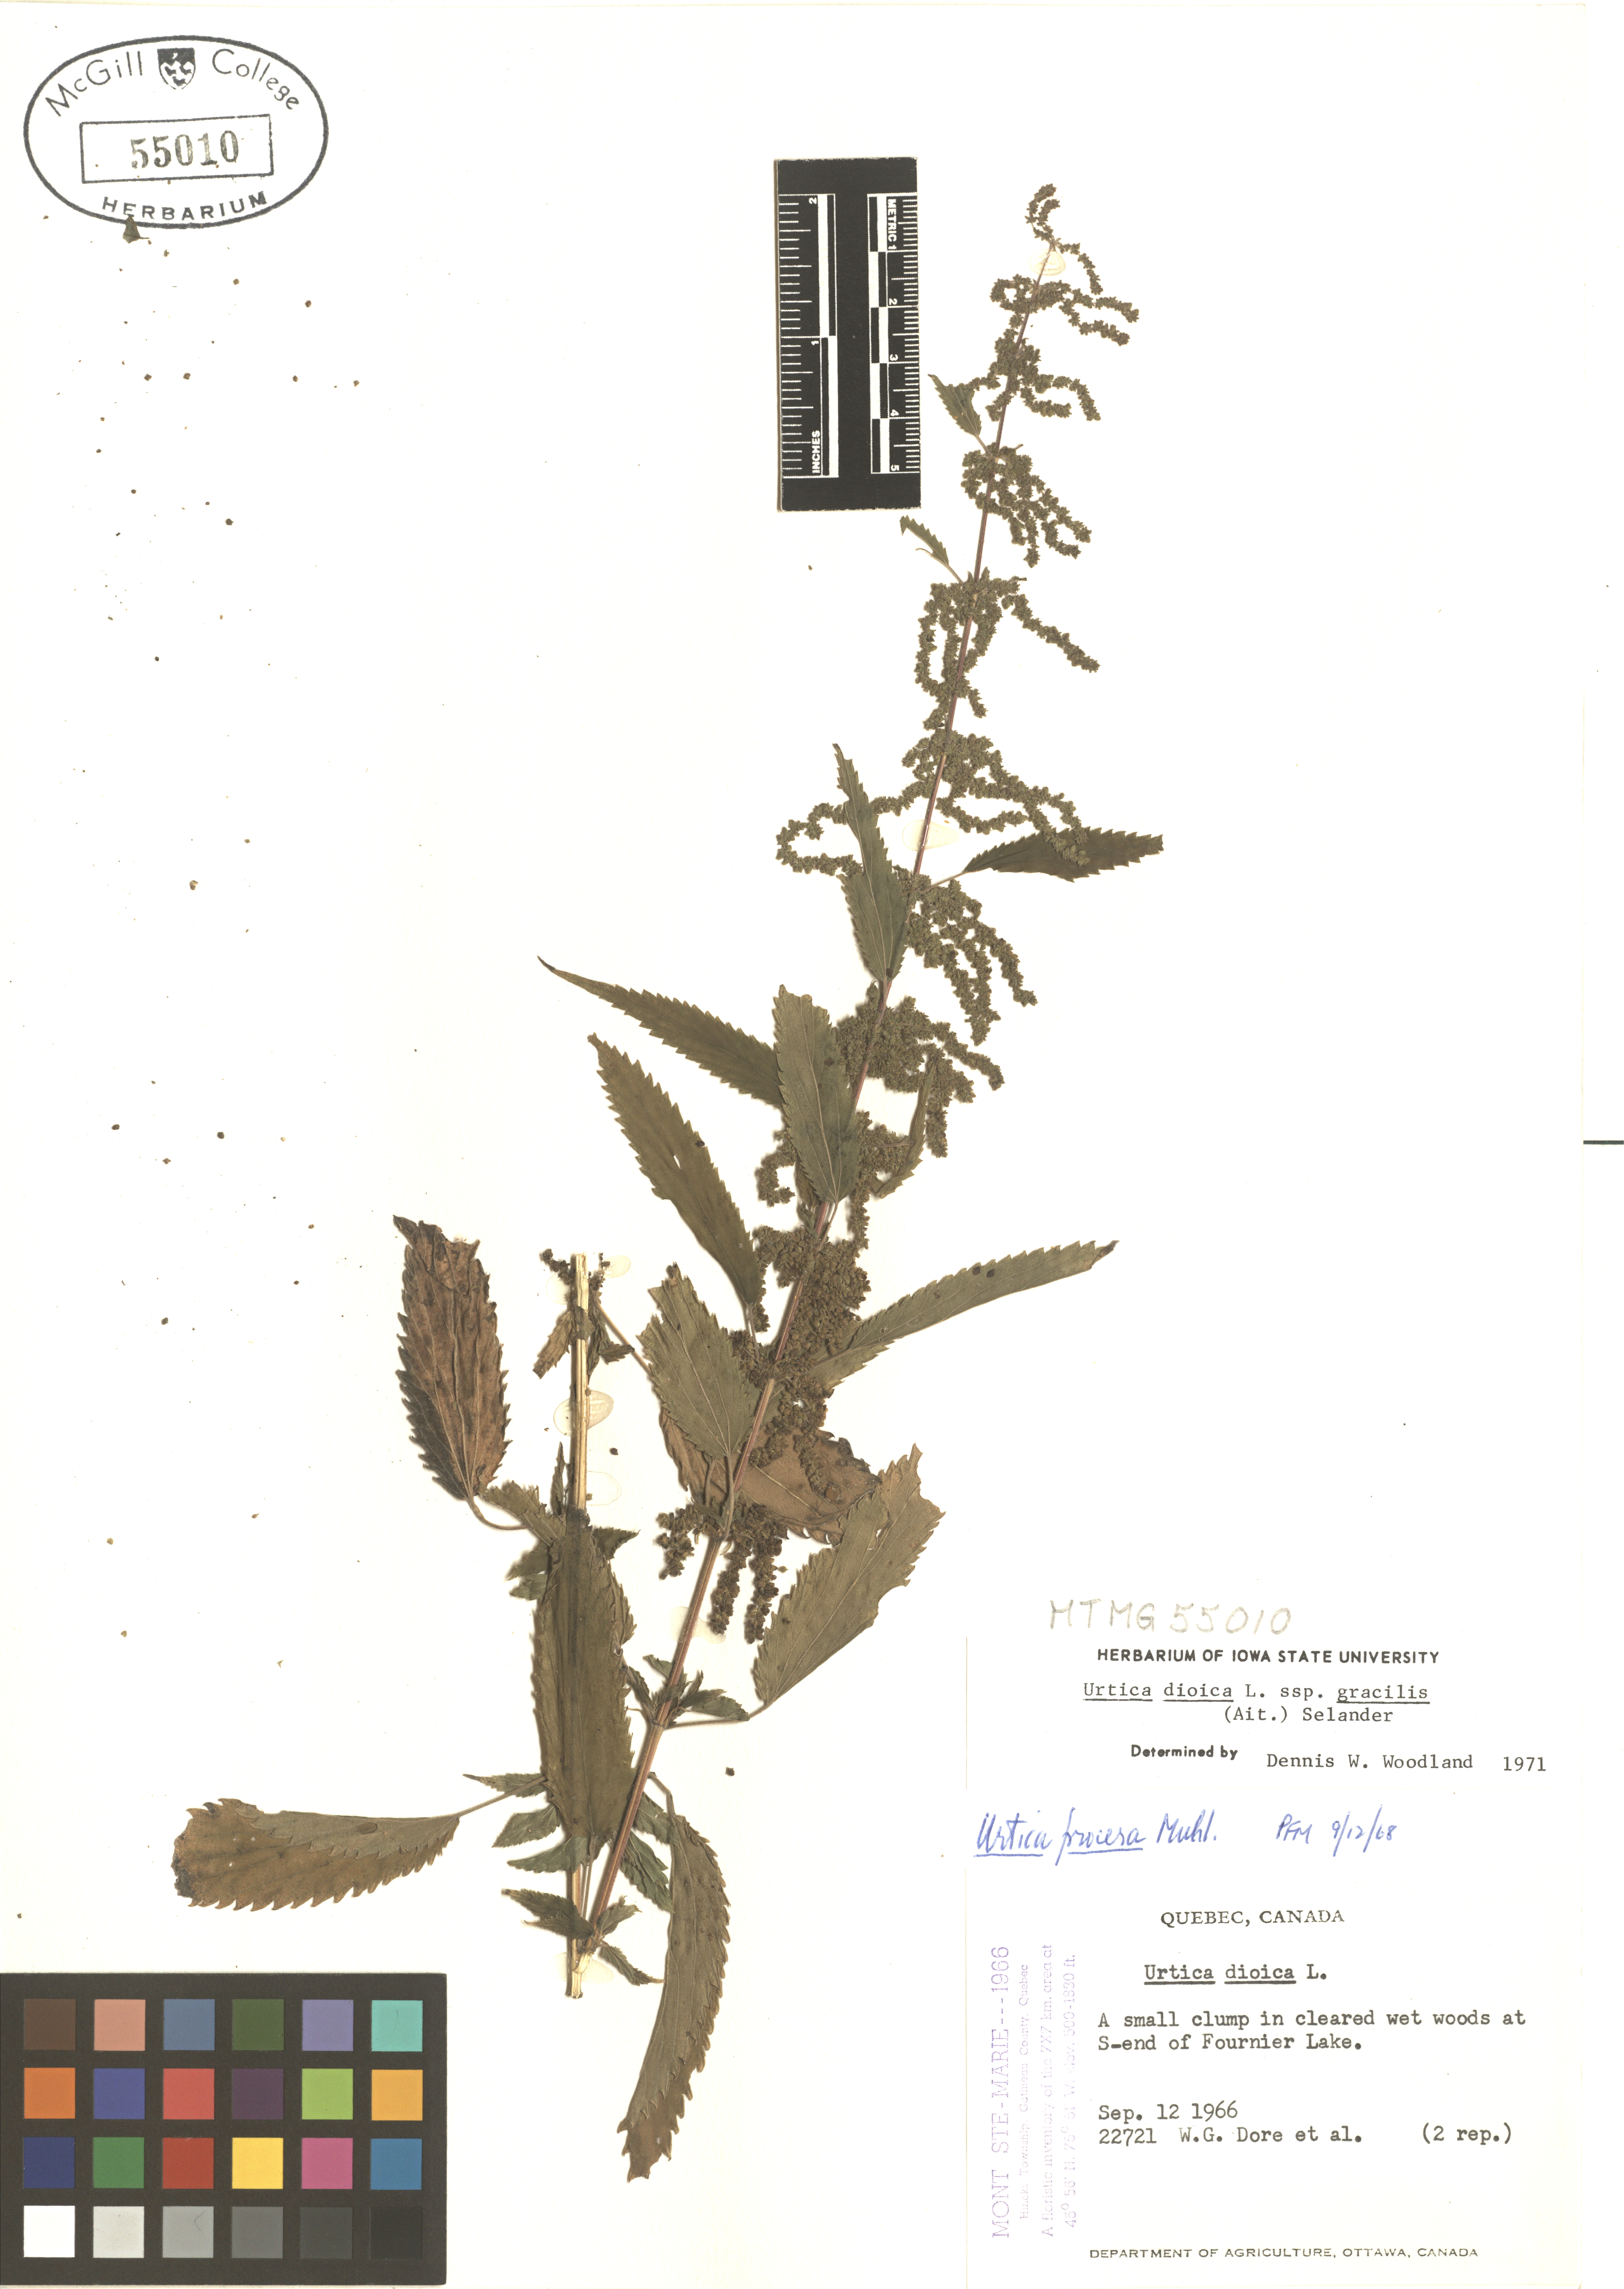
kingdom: Plantae
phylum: Tracheophyta
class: Magnoliopsida
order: Rosales
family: Urticaceae
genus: Urtica
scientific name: Urtica gracilis
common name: Slender stinging nettle
